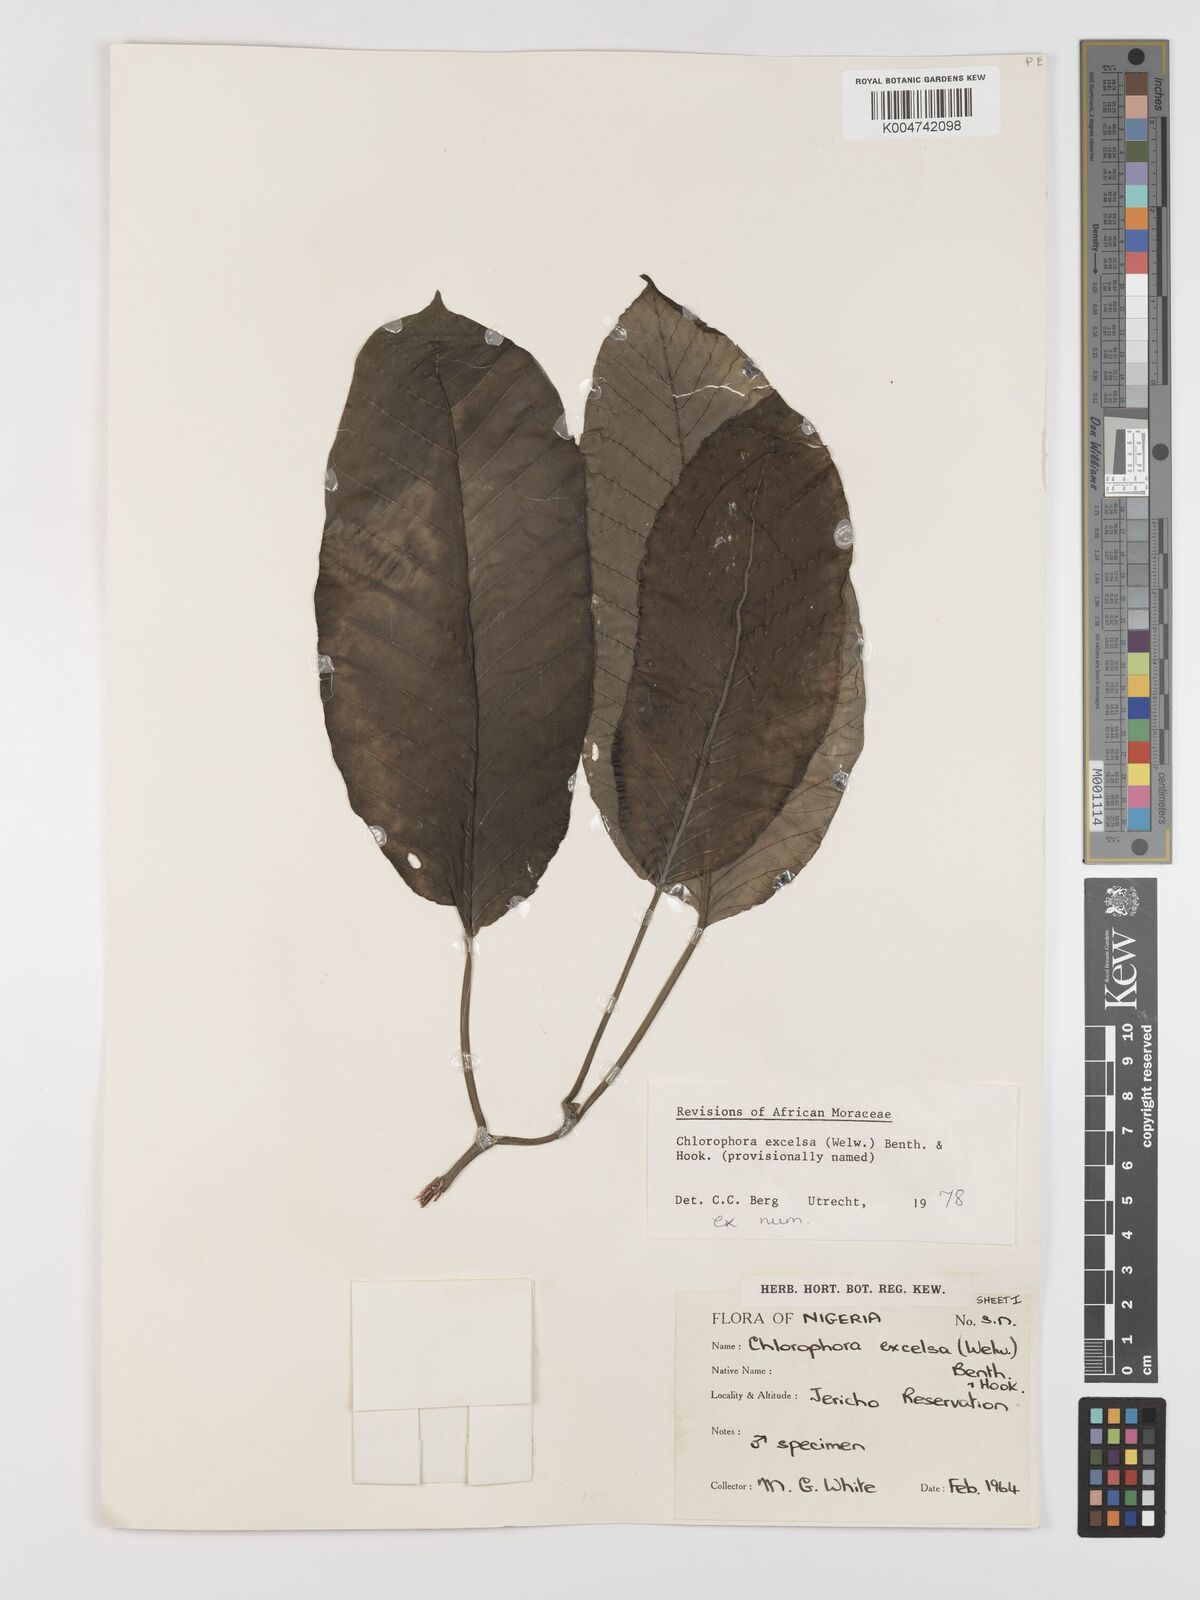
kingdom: Plantae
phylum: Tracheophyta
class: Magnoliopsida
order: Rosales
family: Moraceae
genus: Milicia
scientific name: Milicia excelsa
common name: African teak
